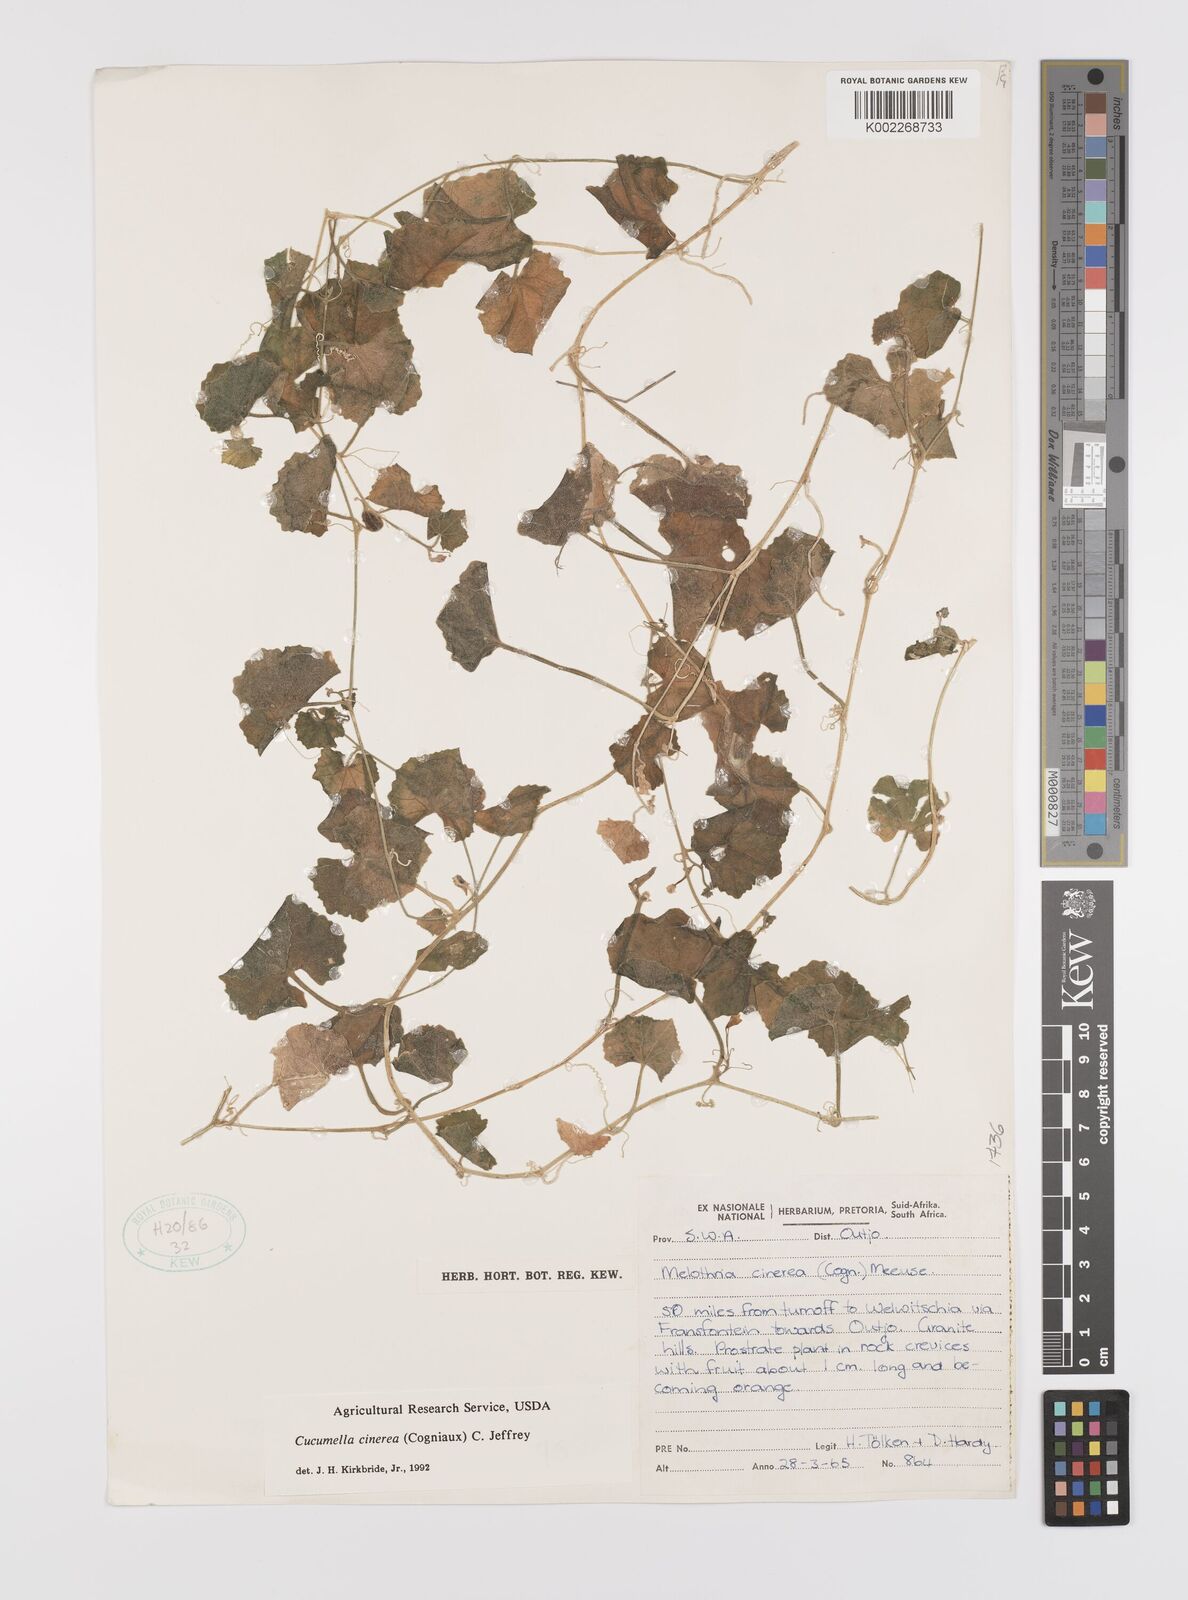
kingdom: Plantae
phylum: Tracheophyta
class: Magnoliopsida
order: Cucurbitales
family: Cucurbitaceae
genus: Cucumis
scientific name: Cucumis cinereus
